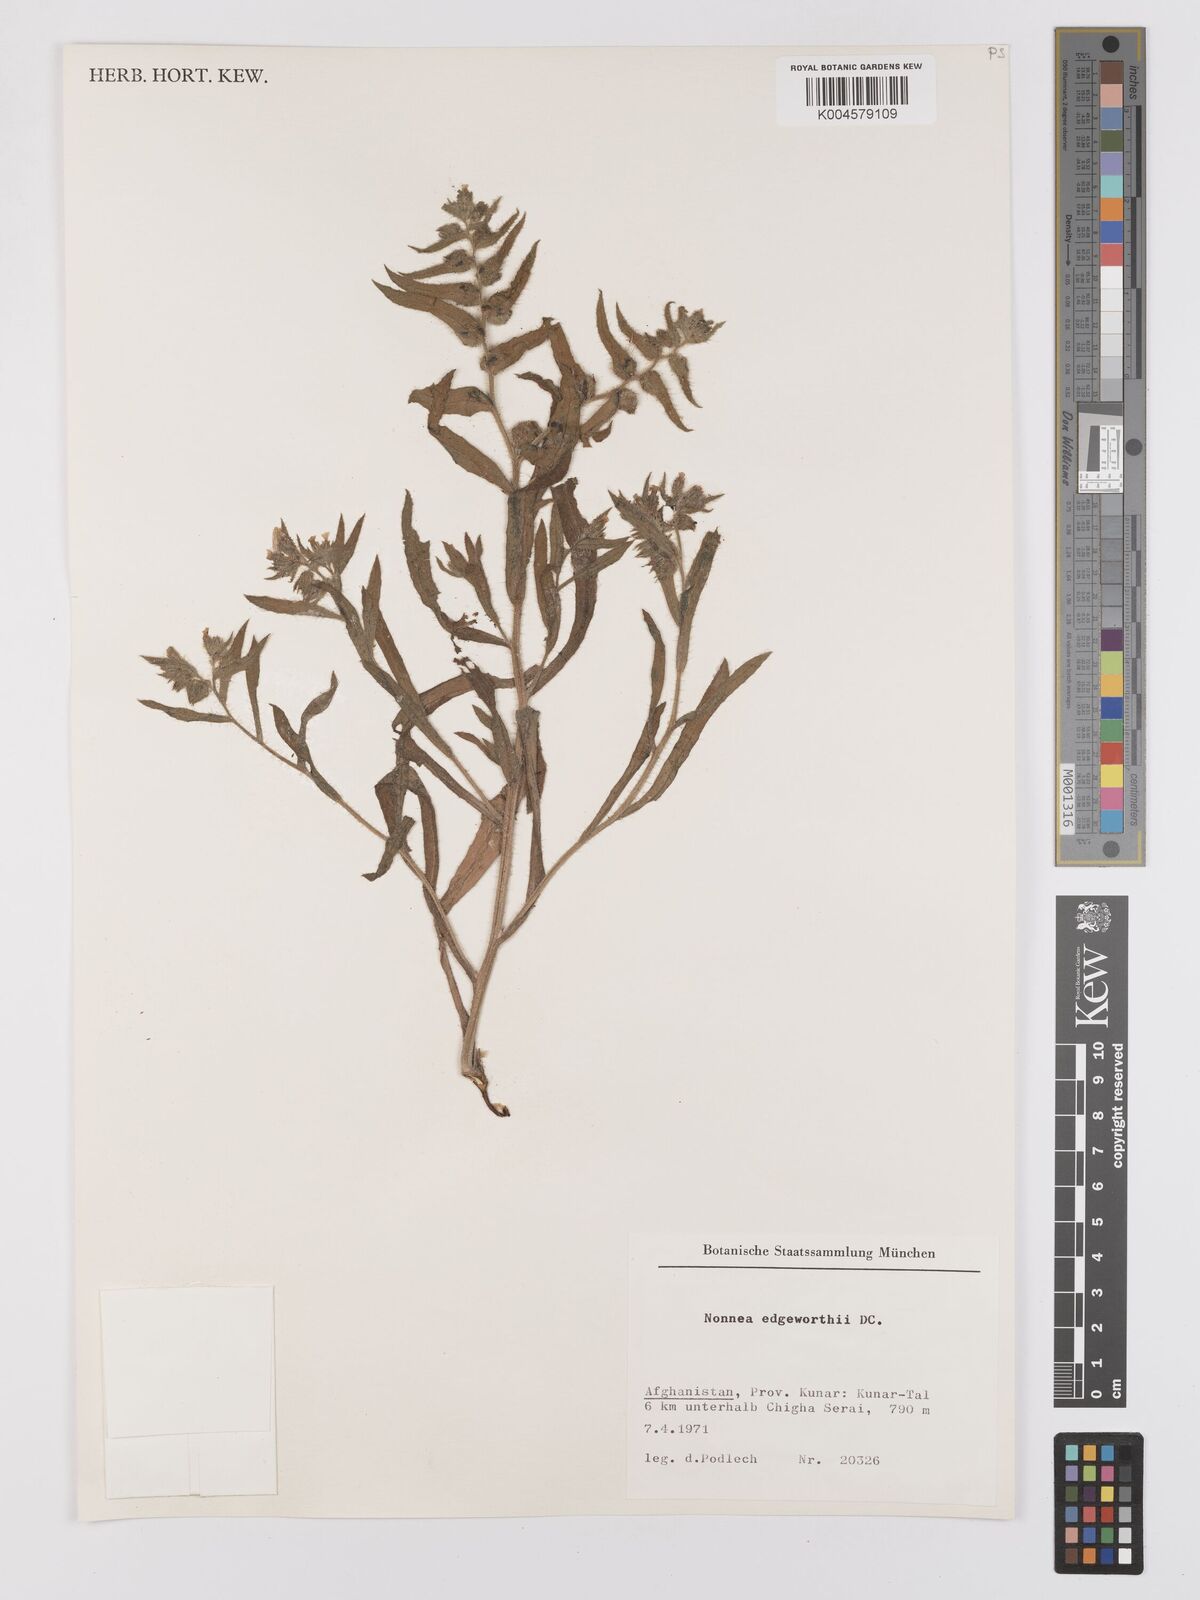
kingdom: Plantae
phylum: Tracheophyta
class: Magnoliopsida
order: Boraginales
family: Boraginaceae
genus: Nonea
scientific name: Nonea edgeworthii
